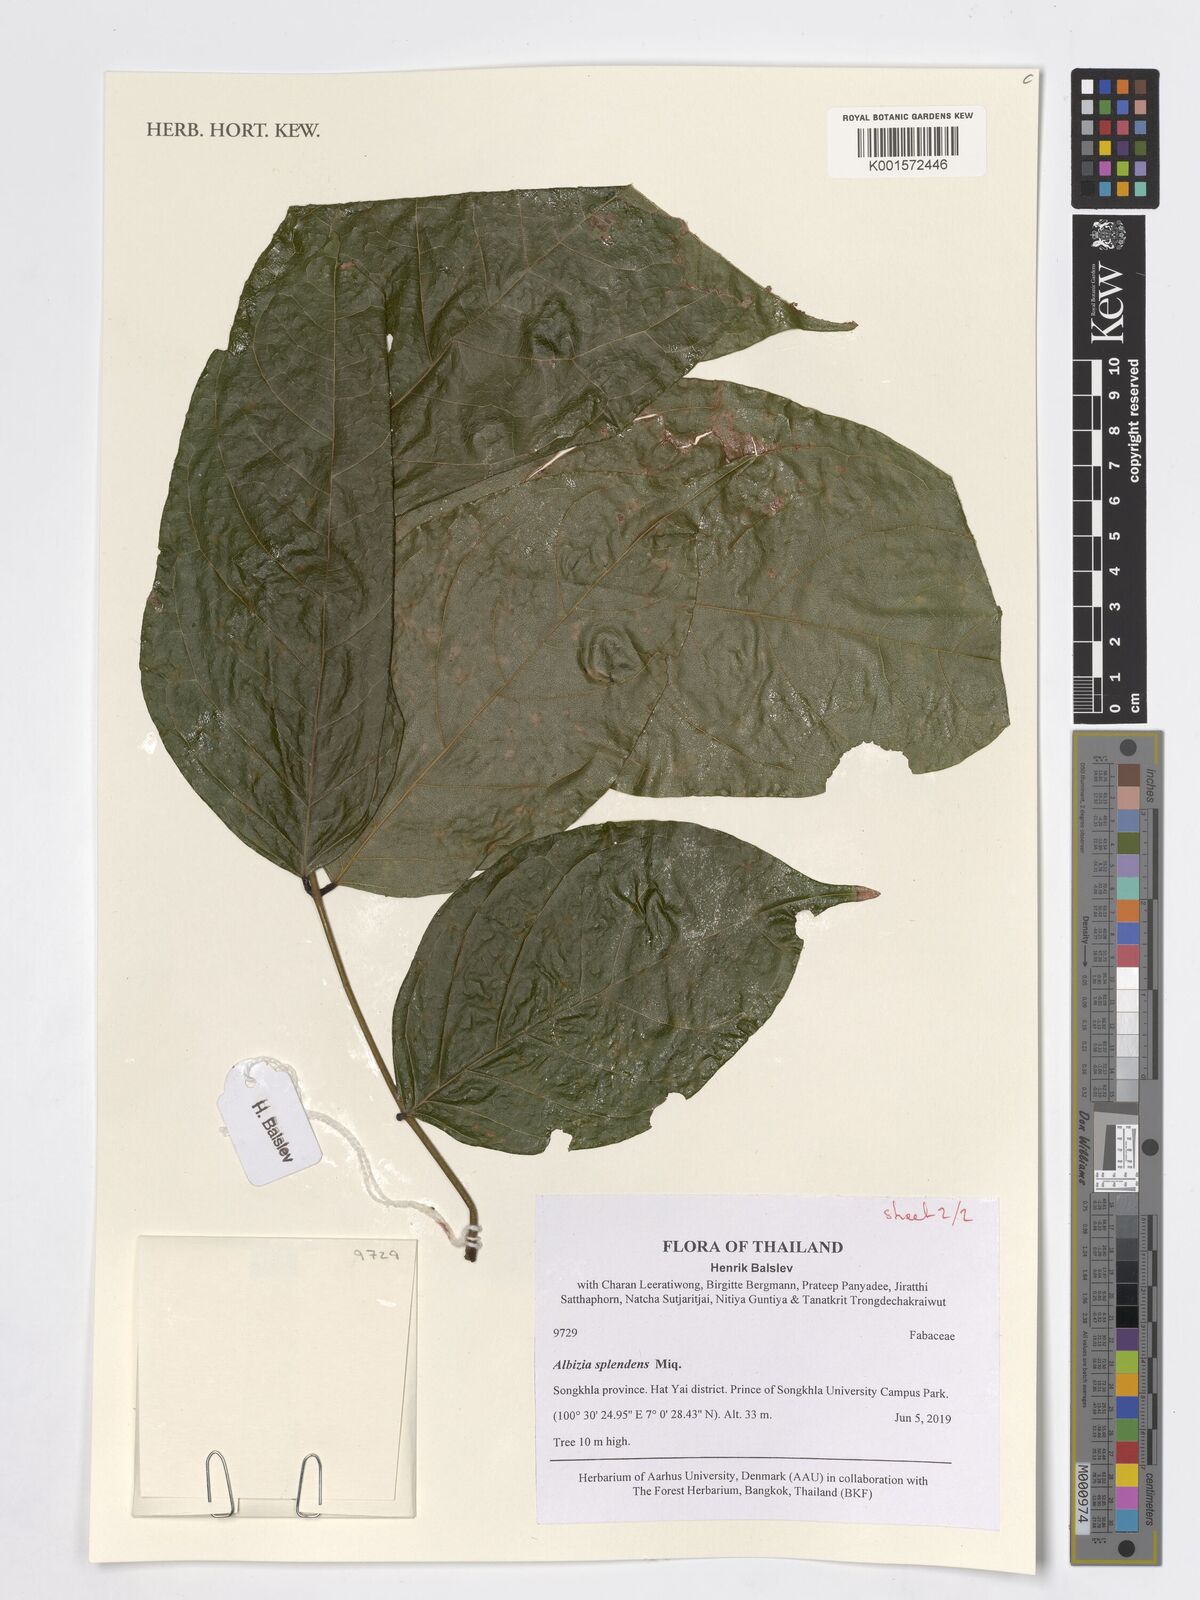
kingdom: Plantae
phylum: Tracheophyta
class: Magnoliopsida
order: Fabales
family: Fabaceae
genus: Albizia
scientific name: Albizia splendens
